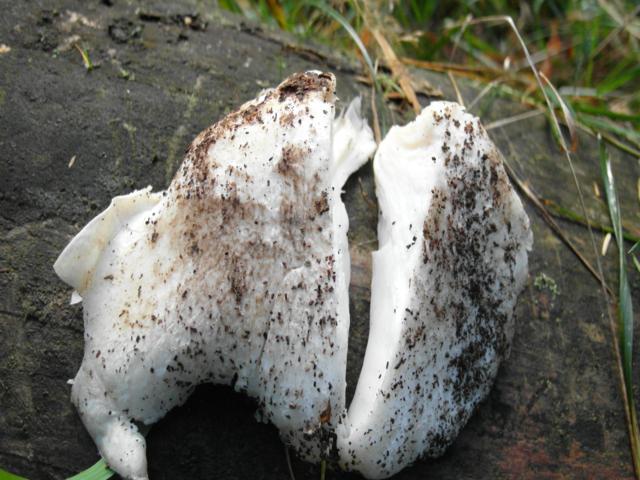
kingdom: Fungi
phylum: Basidiomycota
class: Agaricomycetes
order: Agaricales
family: Pleurotaceae
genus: Pleurotus
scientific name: Pleurotus dryinus
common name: korkagtig østershat
